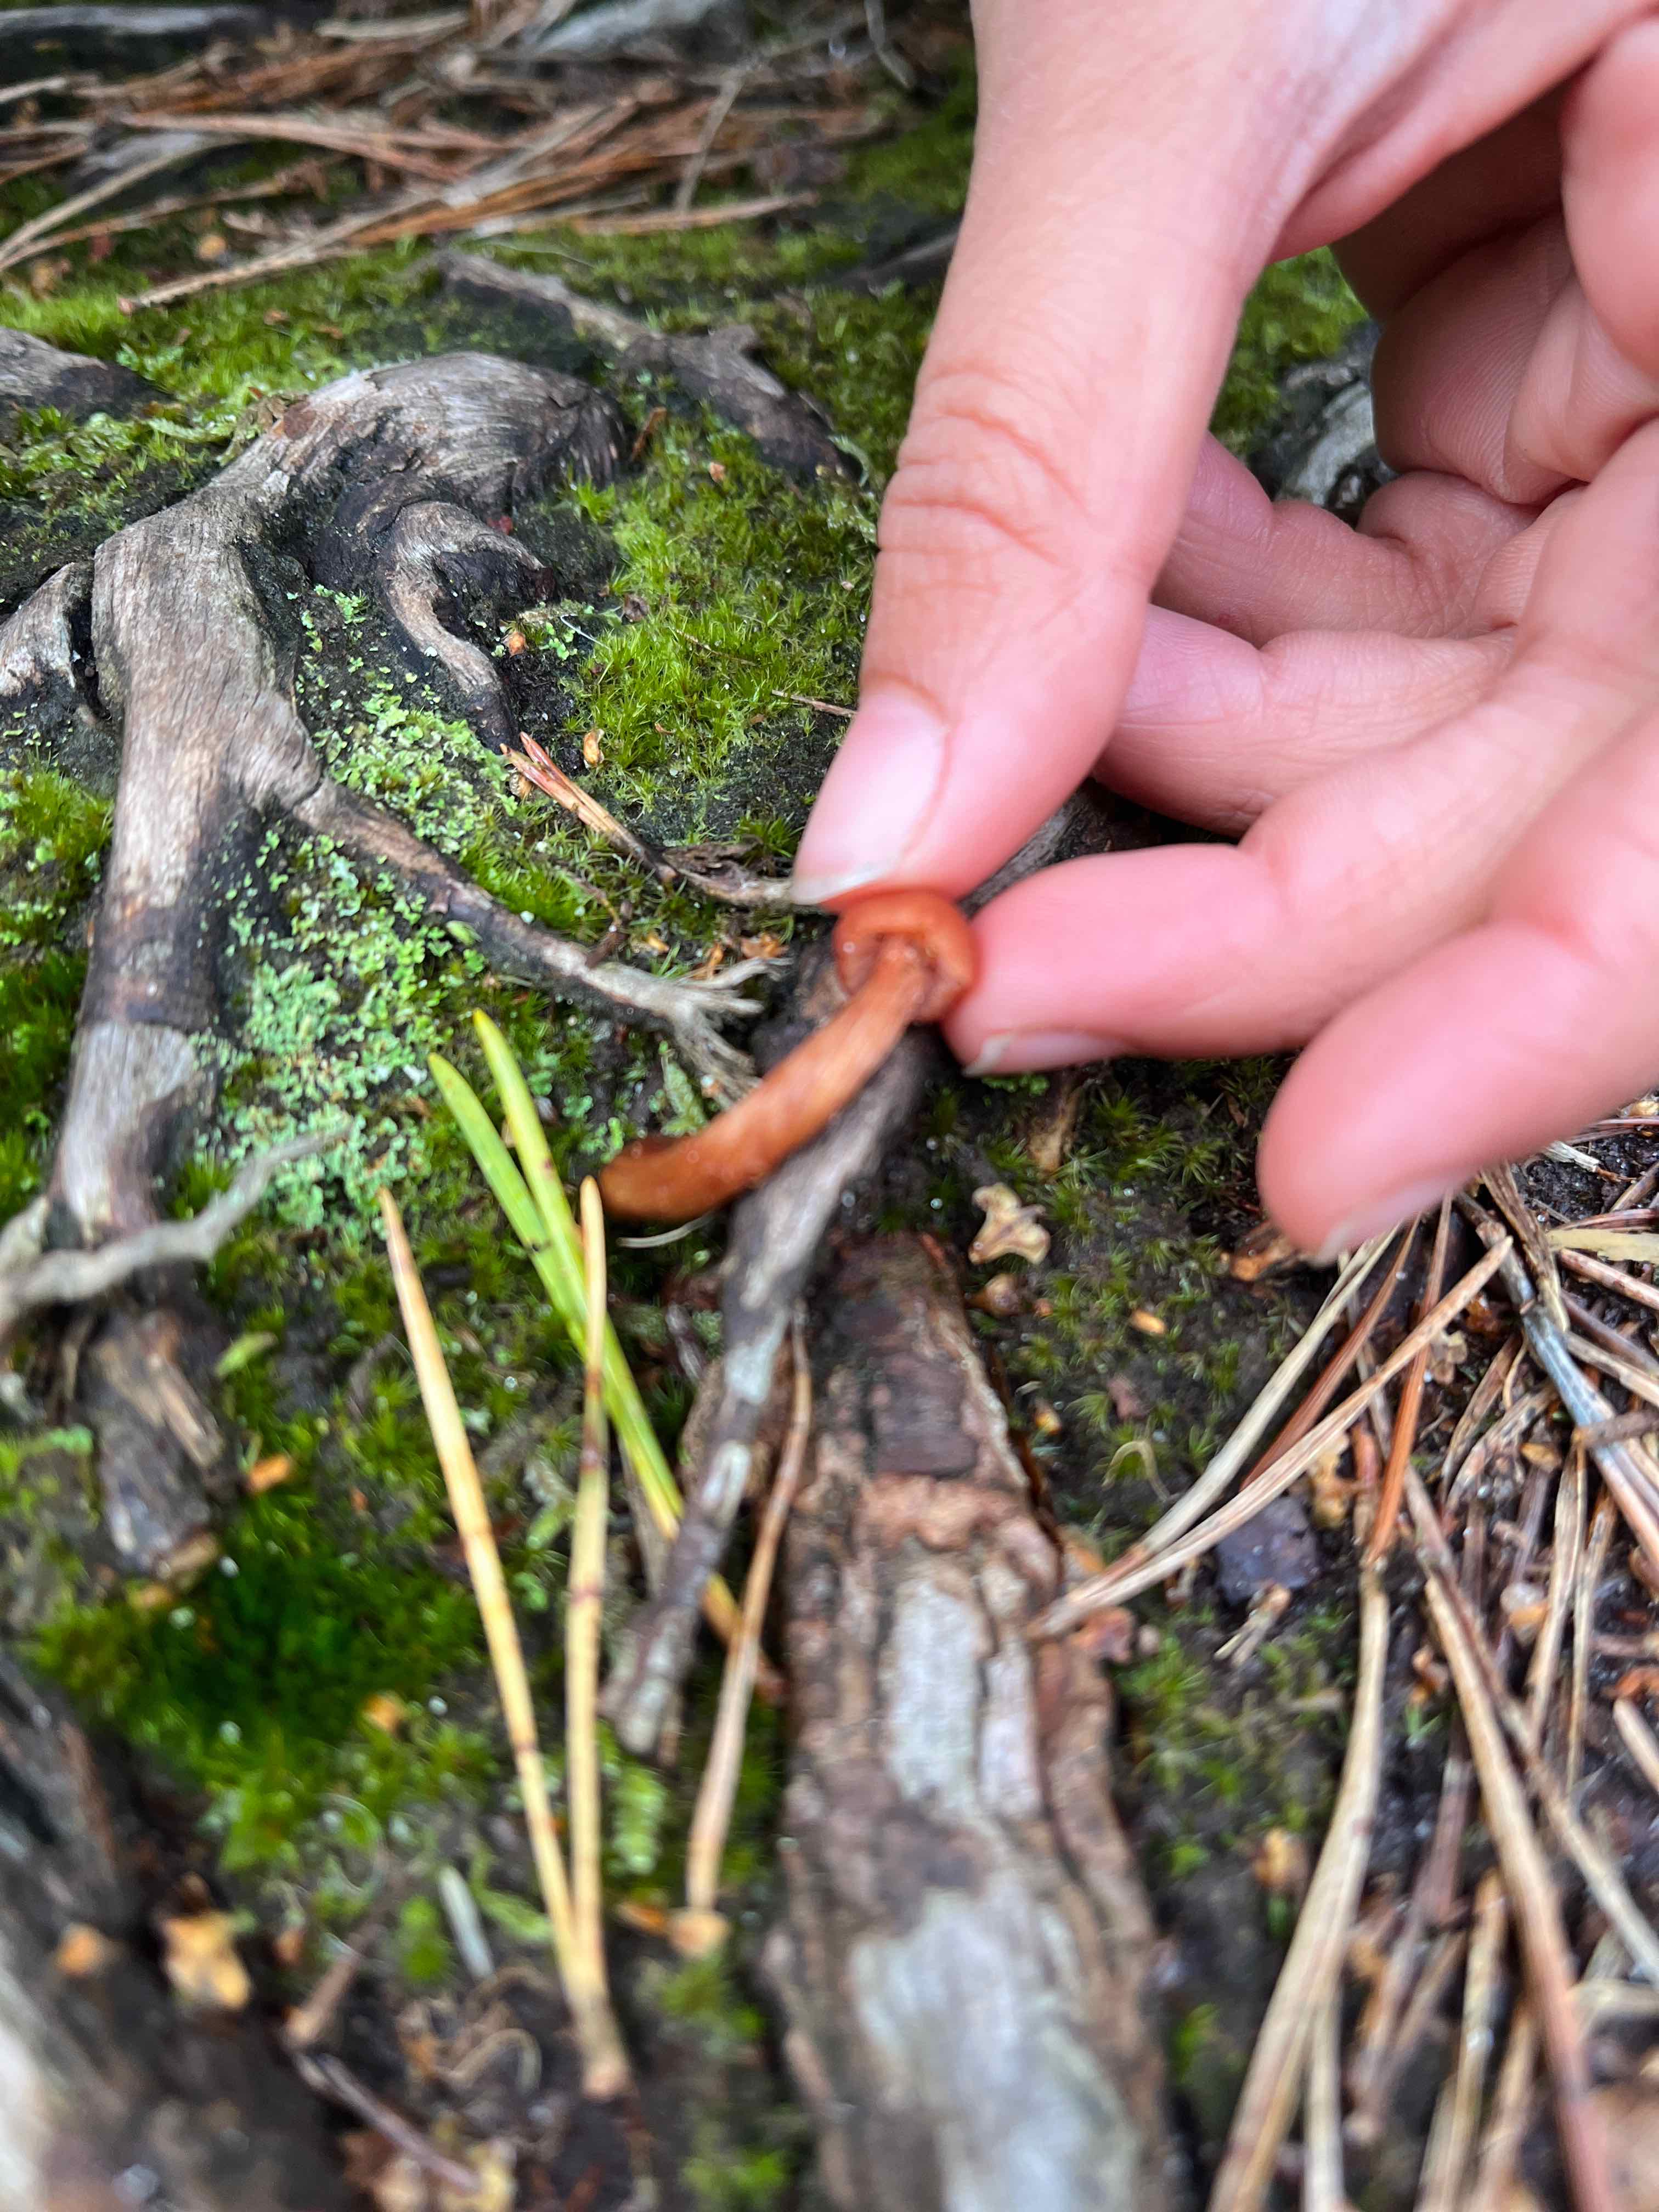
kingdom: Fungi
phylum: Basidiomycota
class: Agaricomycetes
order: Agaricales
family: Hydnangiaceae
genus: Laccaria
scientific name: Laccaria laccata
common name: rød ametysthat
